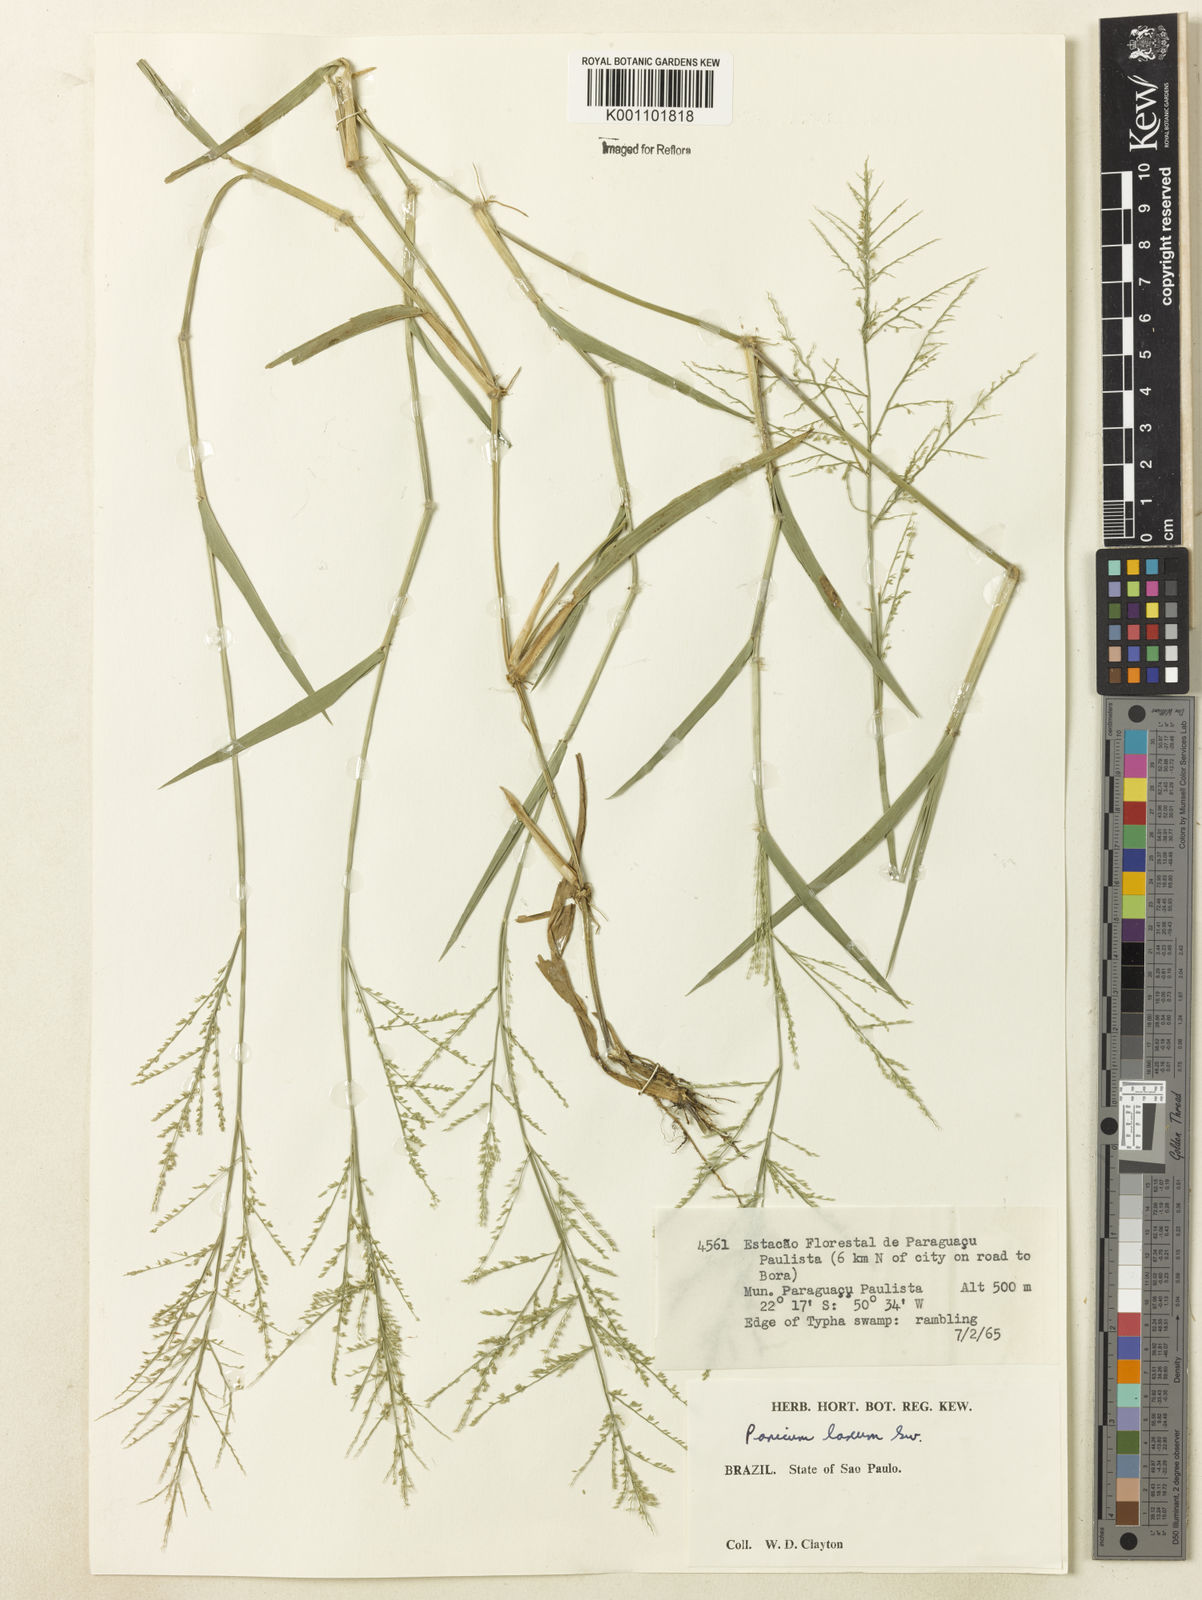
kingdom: Plantae
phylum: Tracheophyta
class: Liliopsida
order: Poales
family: Poaceae
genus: Rugoloa
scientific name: Rugoloa polygonata
